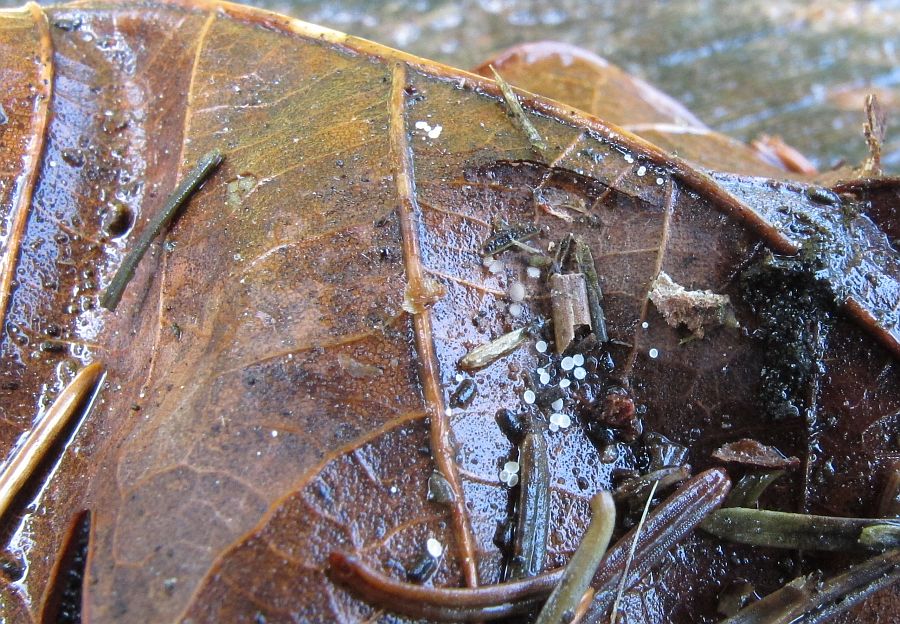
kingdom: Fungi
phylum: Ascomycota
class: Leotiomycetes
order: Helotiales
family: Lachnaceae
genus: Brunnipila
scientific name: Brunnipila brunneola
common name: læderbrun frynseskive
